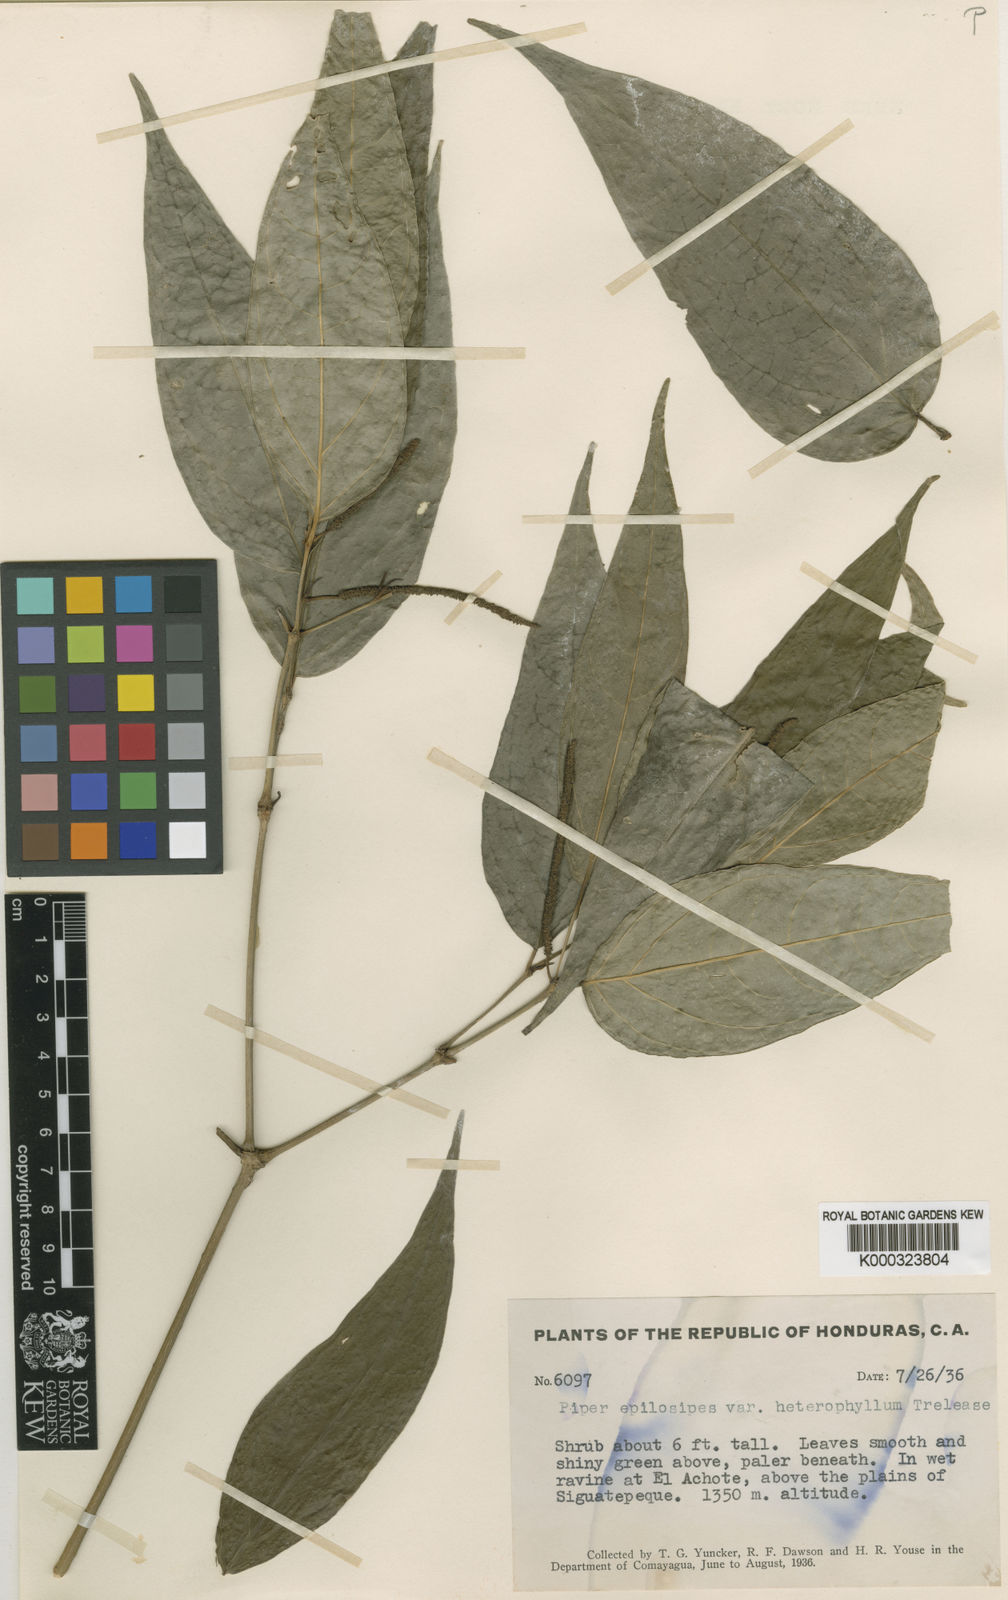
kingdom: Plantae
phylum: Tracheophyta
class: Magnoliopsida
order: Piperales
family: Piperaceae
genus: Piper
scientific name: Piper aequale
